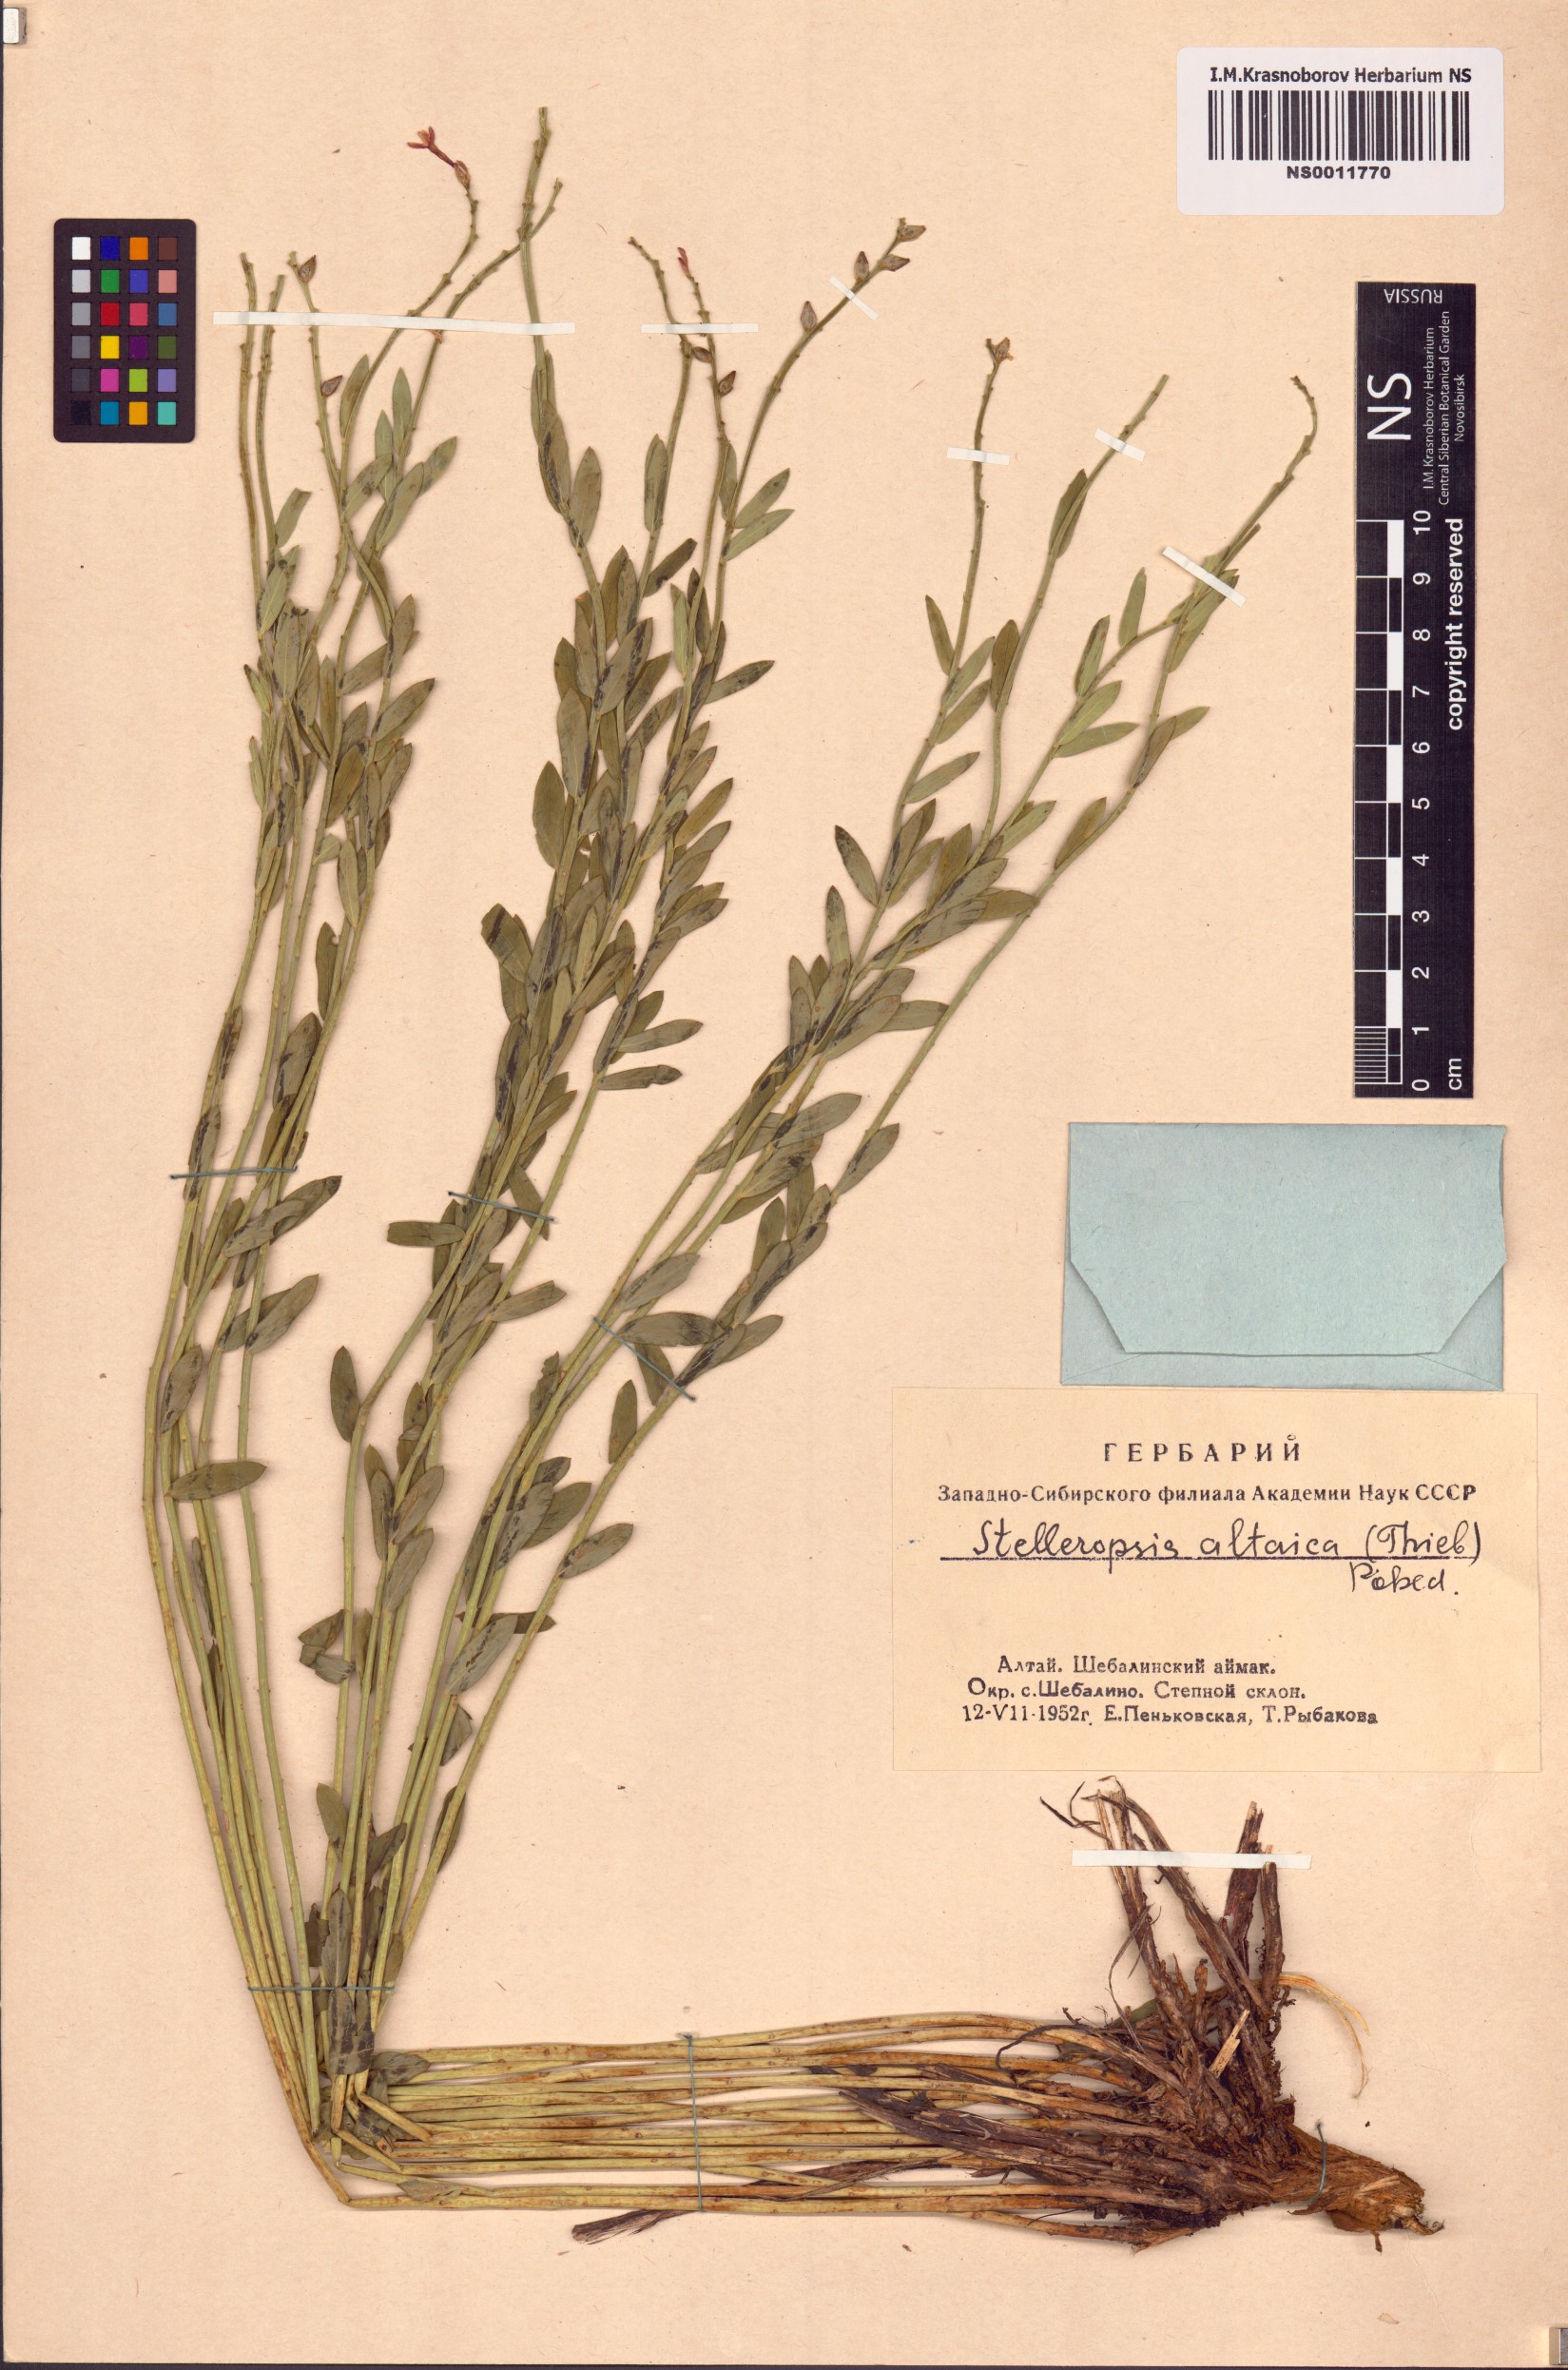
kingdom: Plantae
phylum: Tracheophyta
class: Magnoliopsida
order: Malvales
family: Thymelaeaceae
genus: Diarthron
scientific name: Diarthron altaicum
